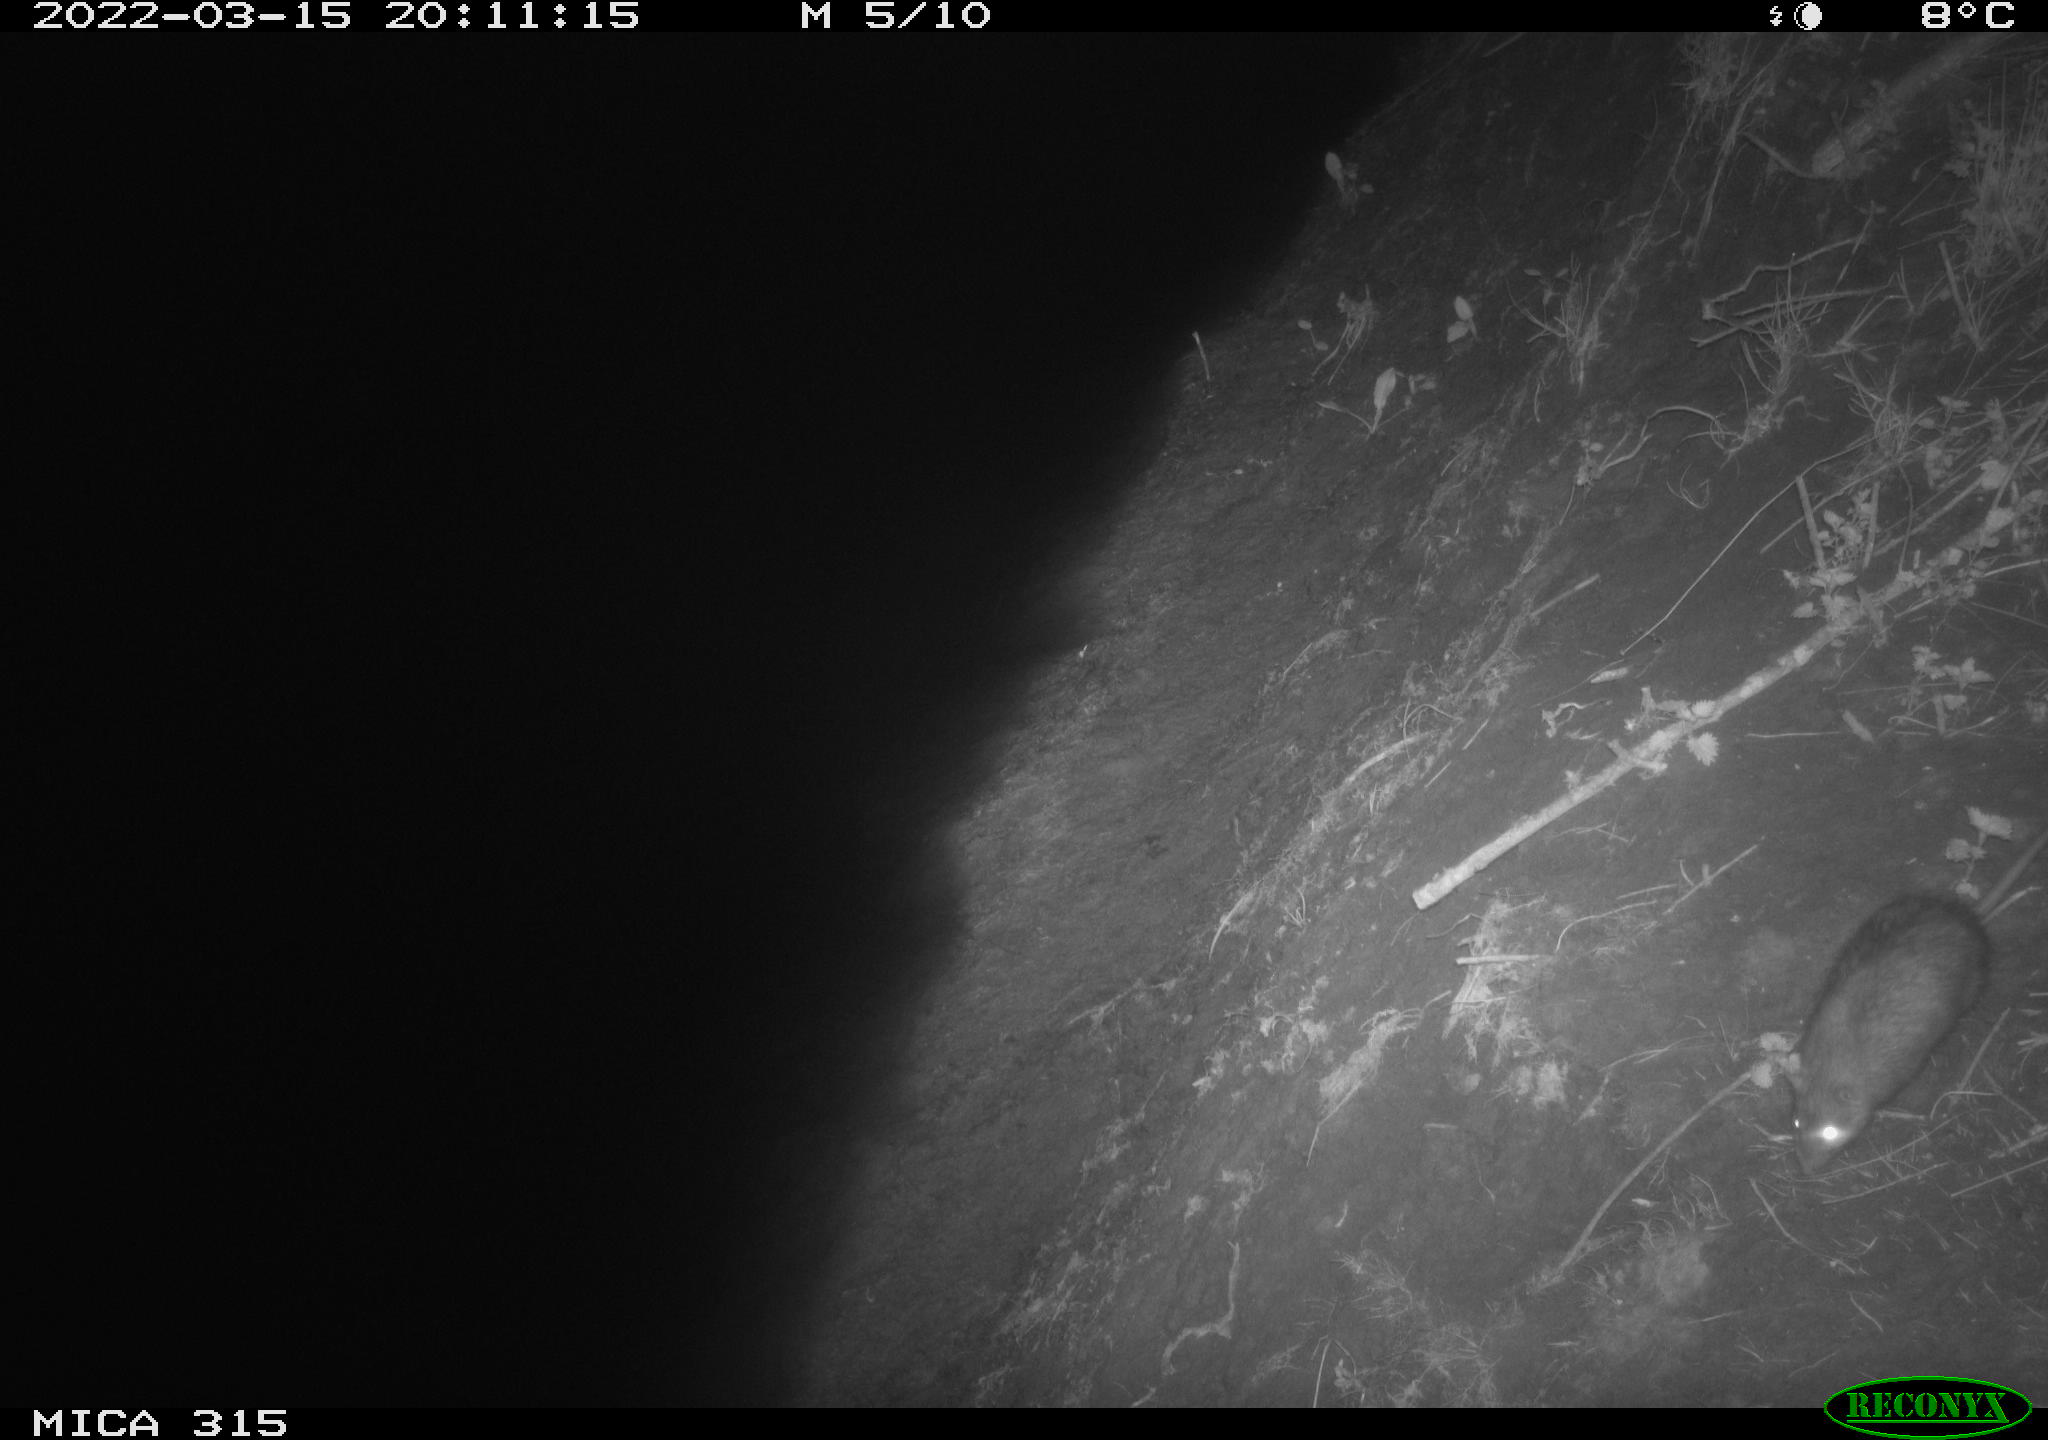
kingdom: Animalia
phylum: Chordata
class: Mammalia
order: Rodentia
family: Muridae
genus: Rattus
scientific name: Rattus norvegicus
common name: Brown rat
